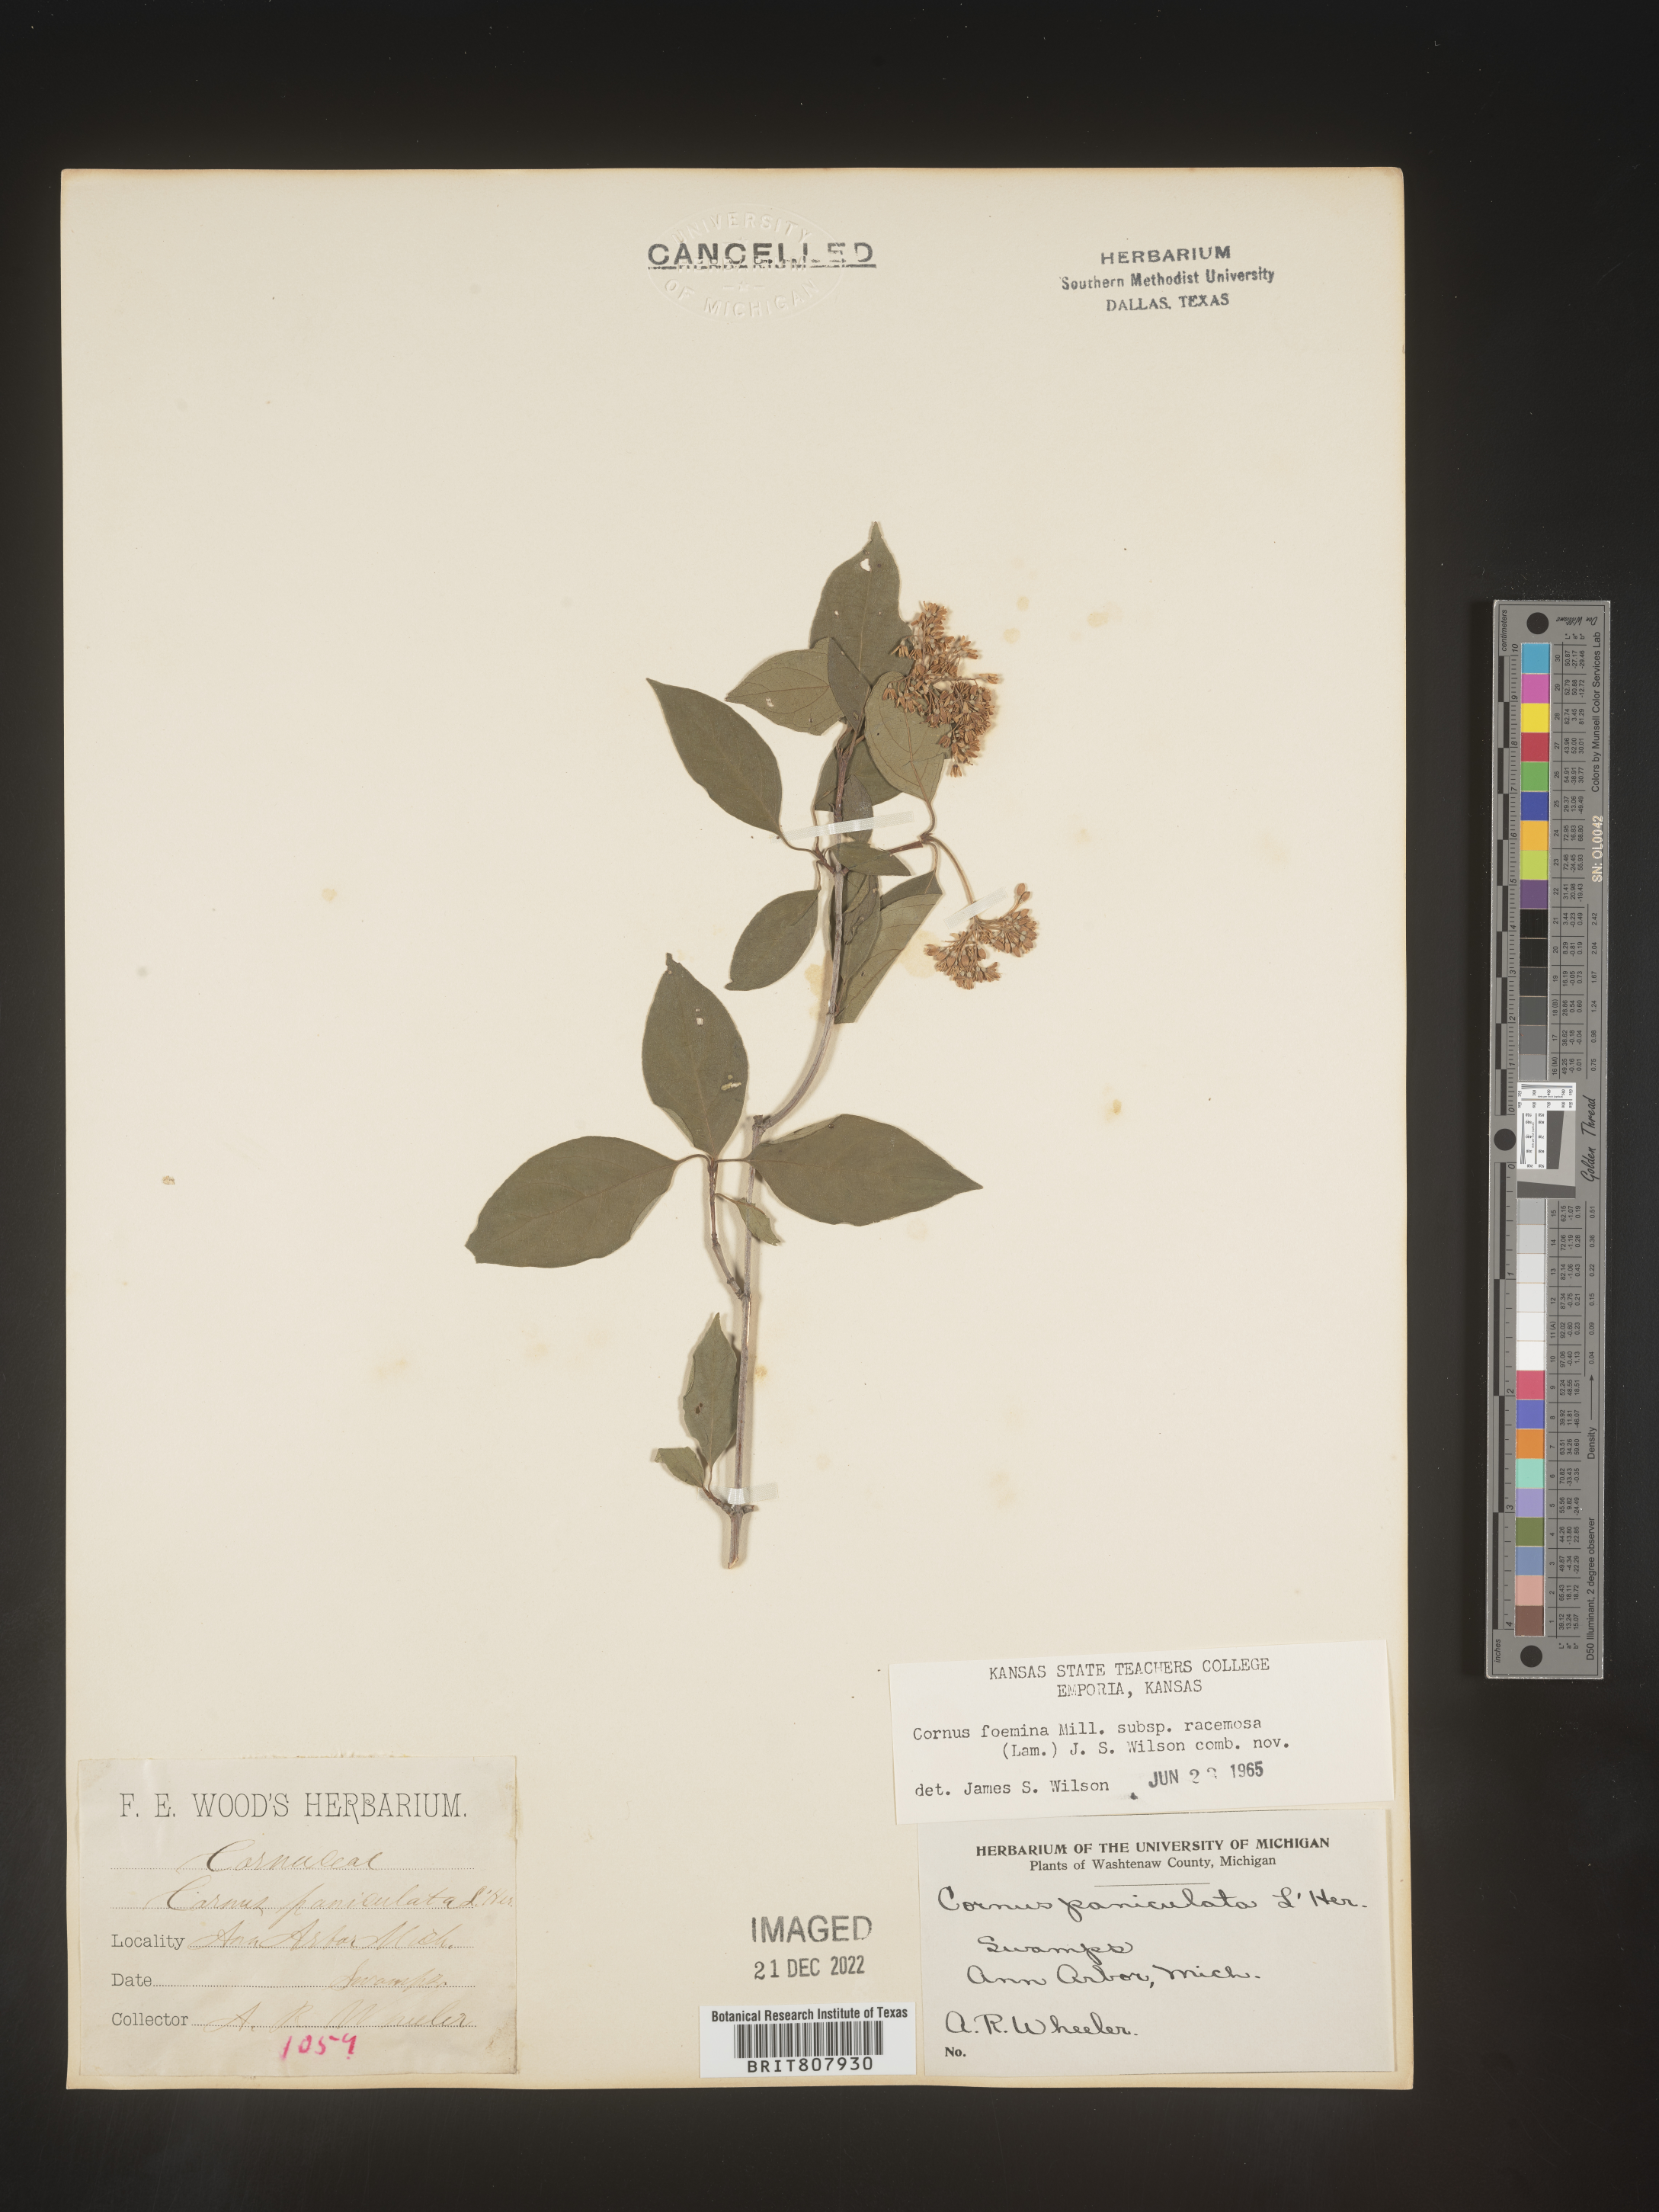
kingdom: Plantae
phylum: Tracheophyta
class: Magnoliopsida
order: Cornales
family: Cornaceae
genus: Cornus
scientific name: Cornus racemosa
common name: Panicled dogwood
